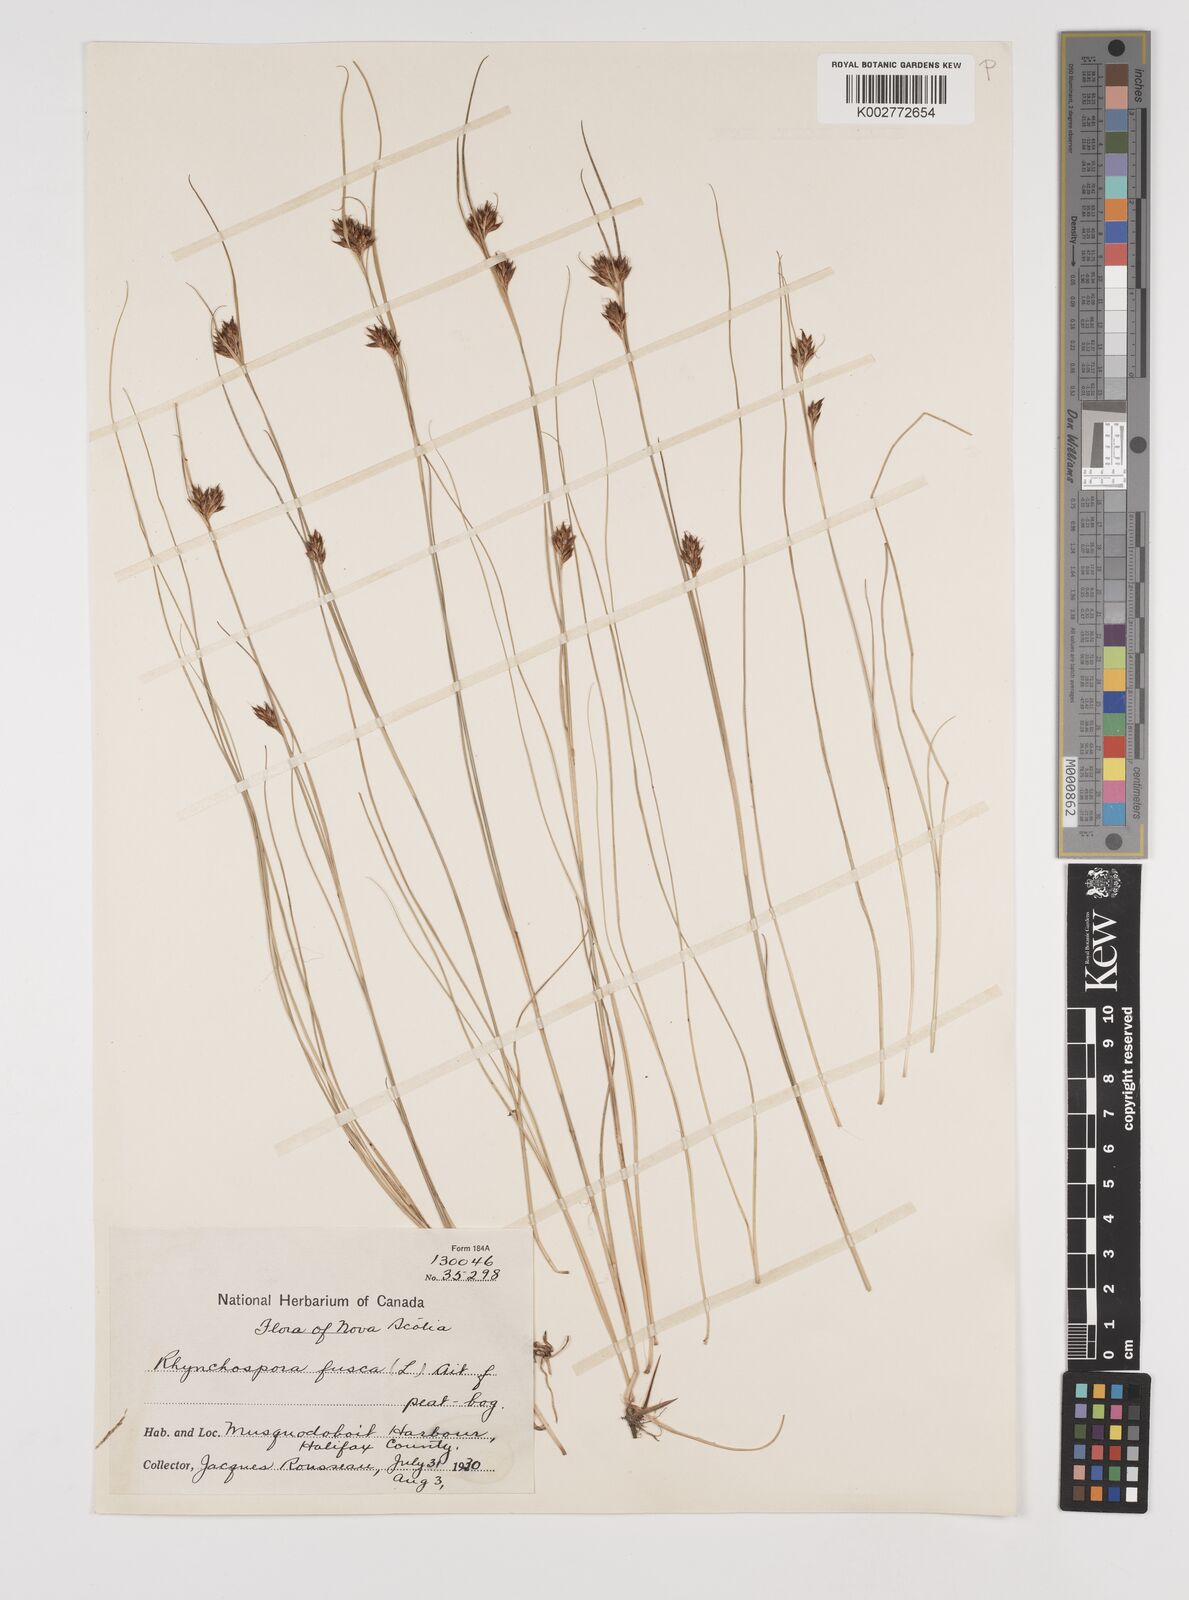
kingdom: Plantae
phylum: Tracheophyta
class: Liliopsida
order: Poales
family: Cyperaceae
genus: Rhynchospora
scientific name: Rhynchospora fusca
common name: Brown beak-sedge
